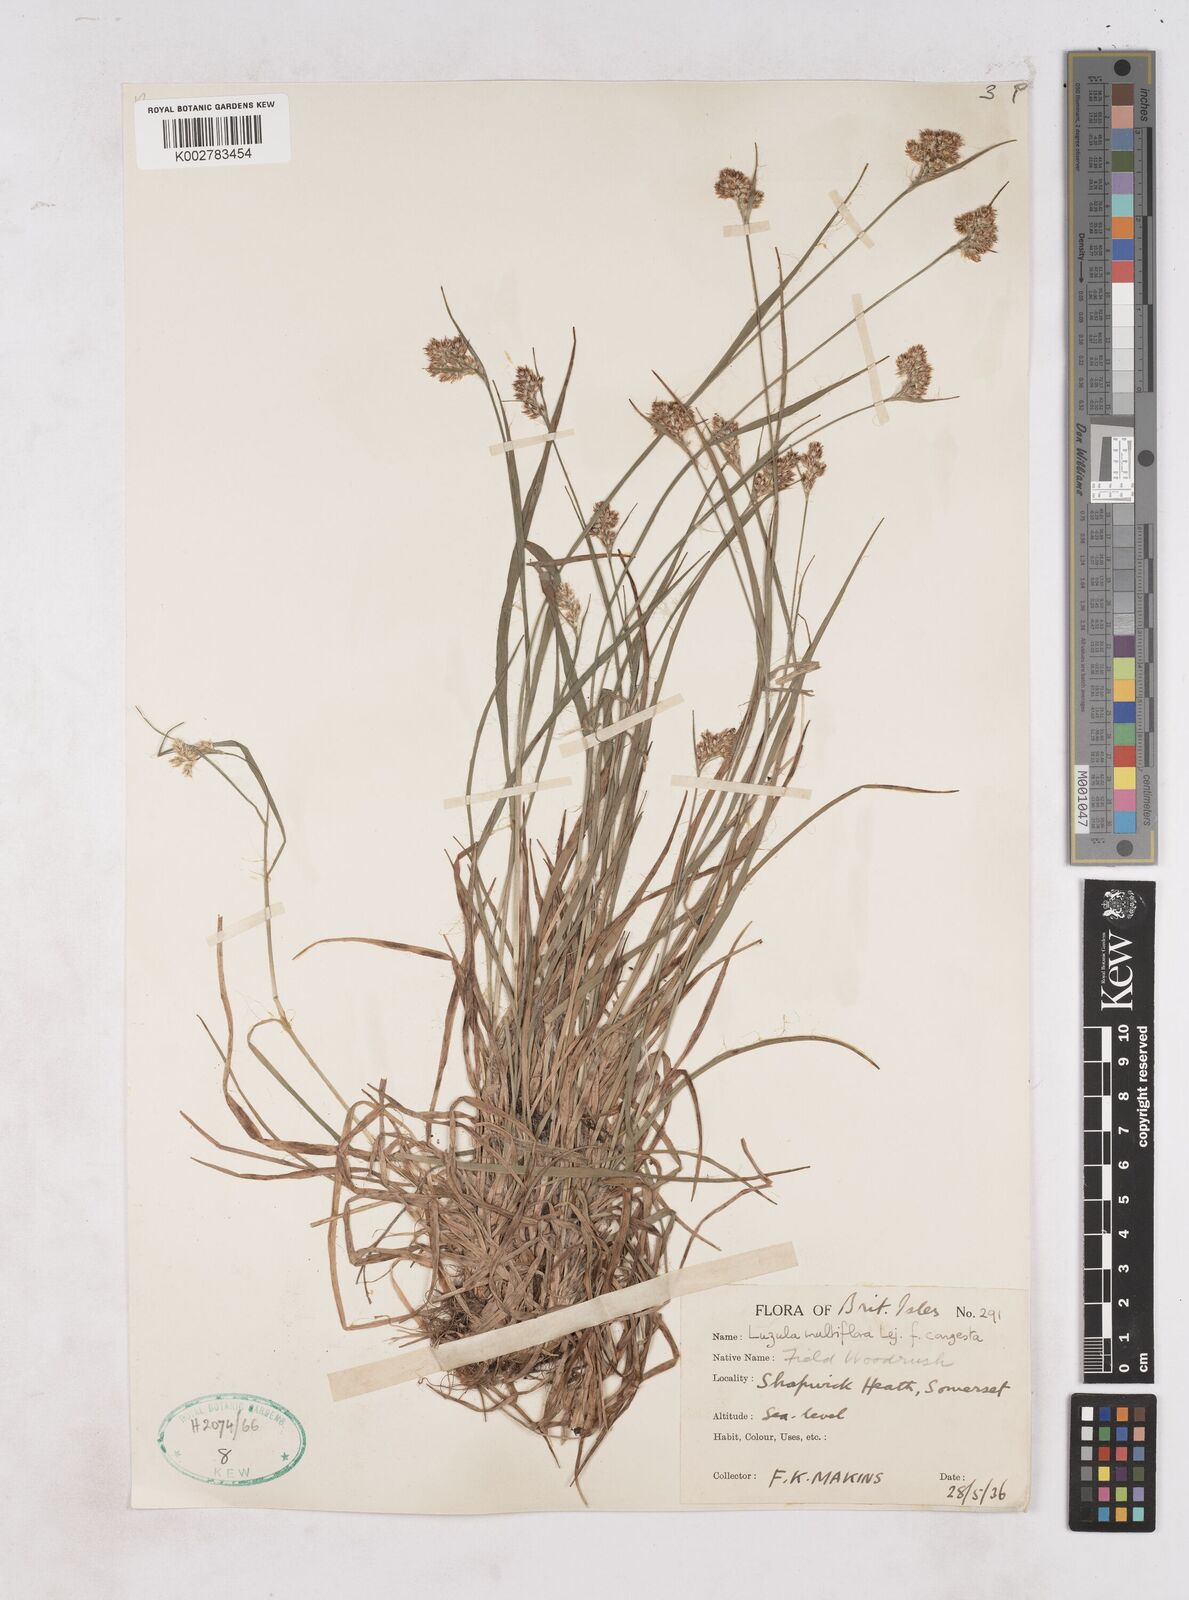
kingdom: Plantae
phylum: Tracheophyta
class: Liliopsida
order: Poales
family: Juncaceae
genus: Luzula
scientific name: Luzula campestris
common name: Field wood-rush
